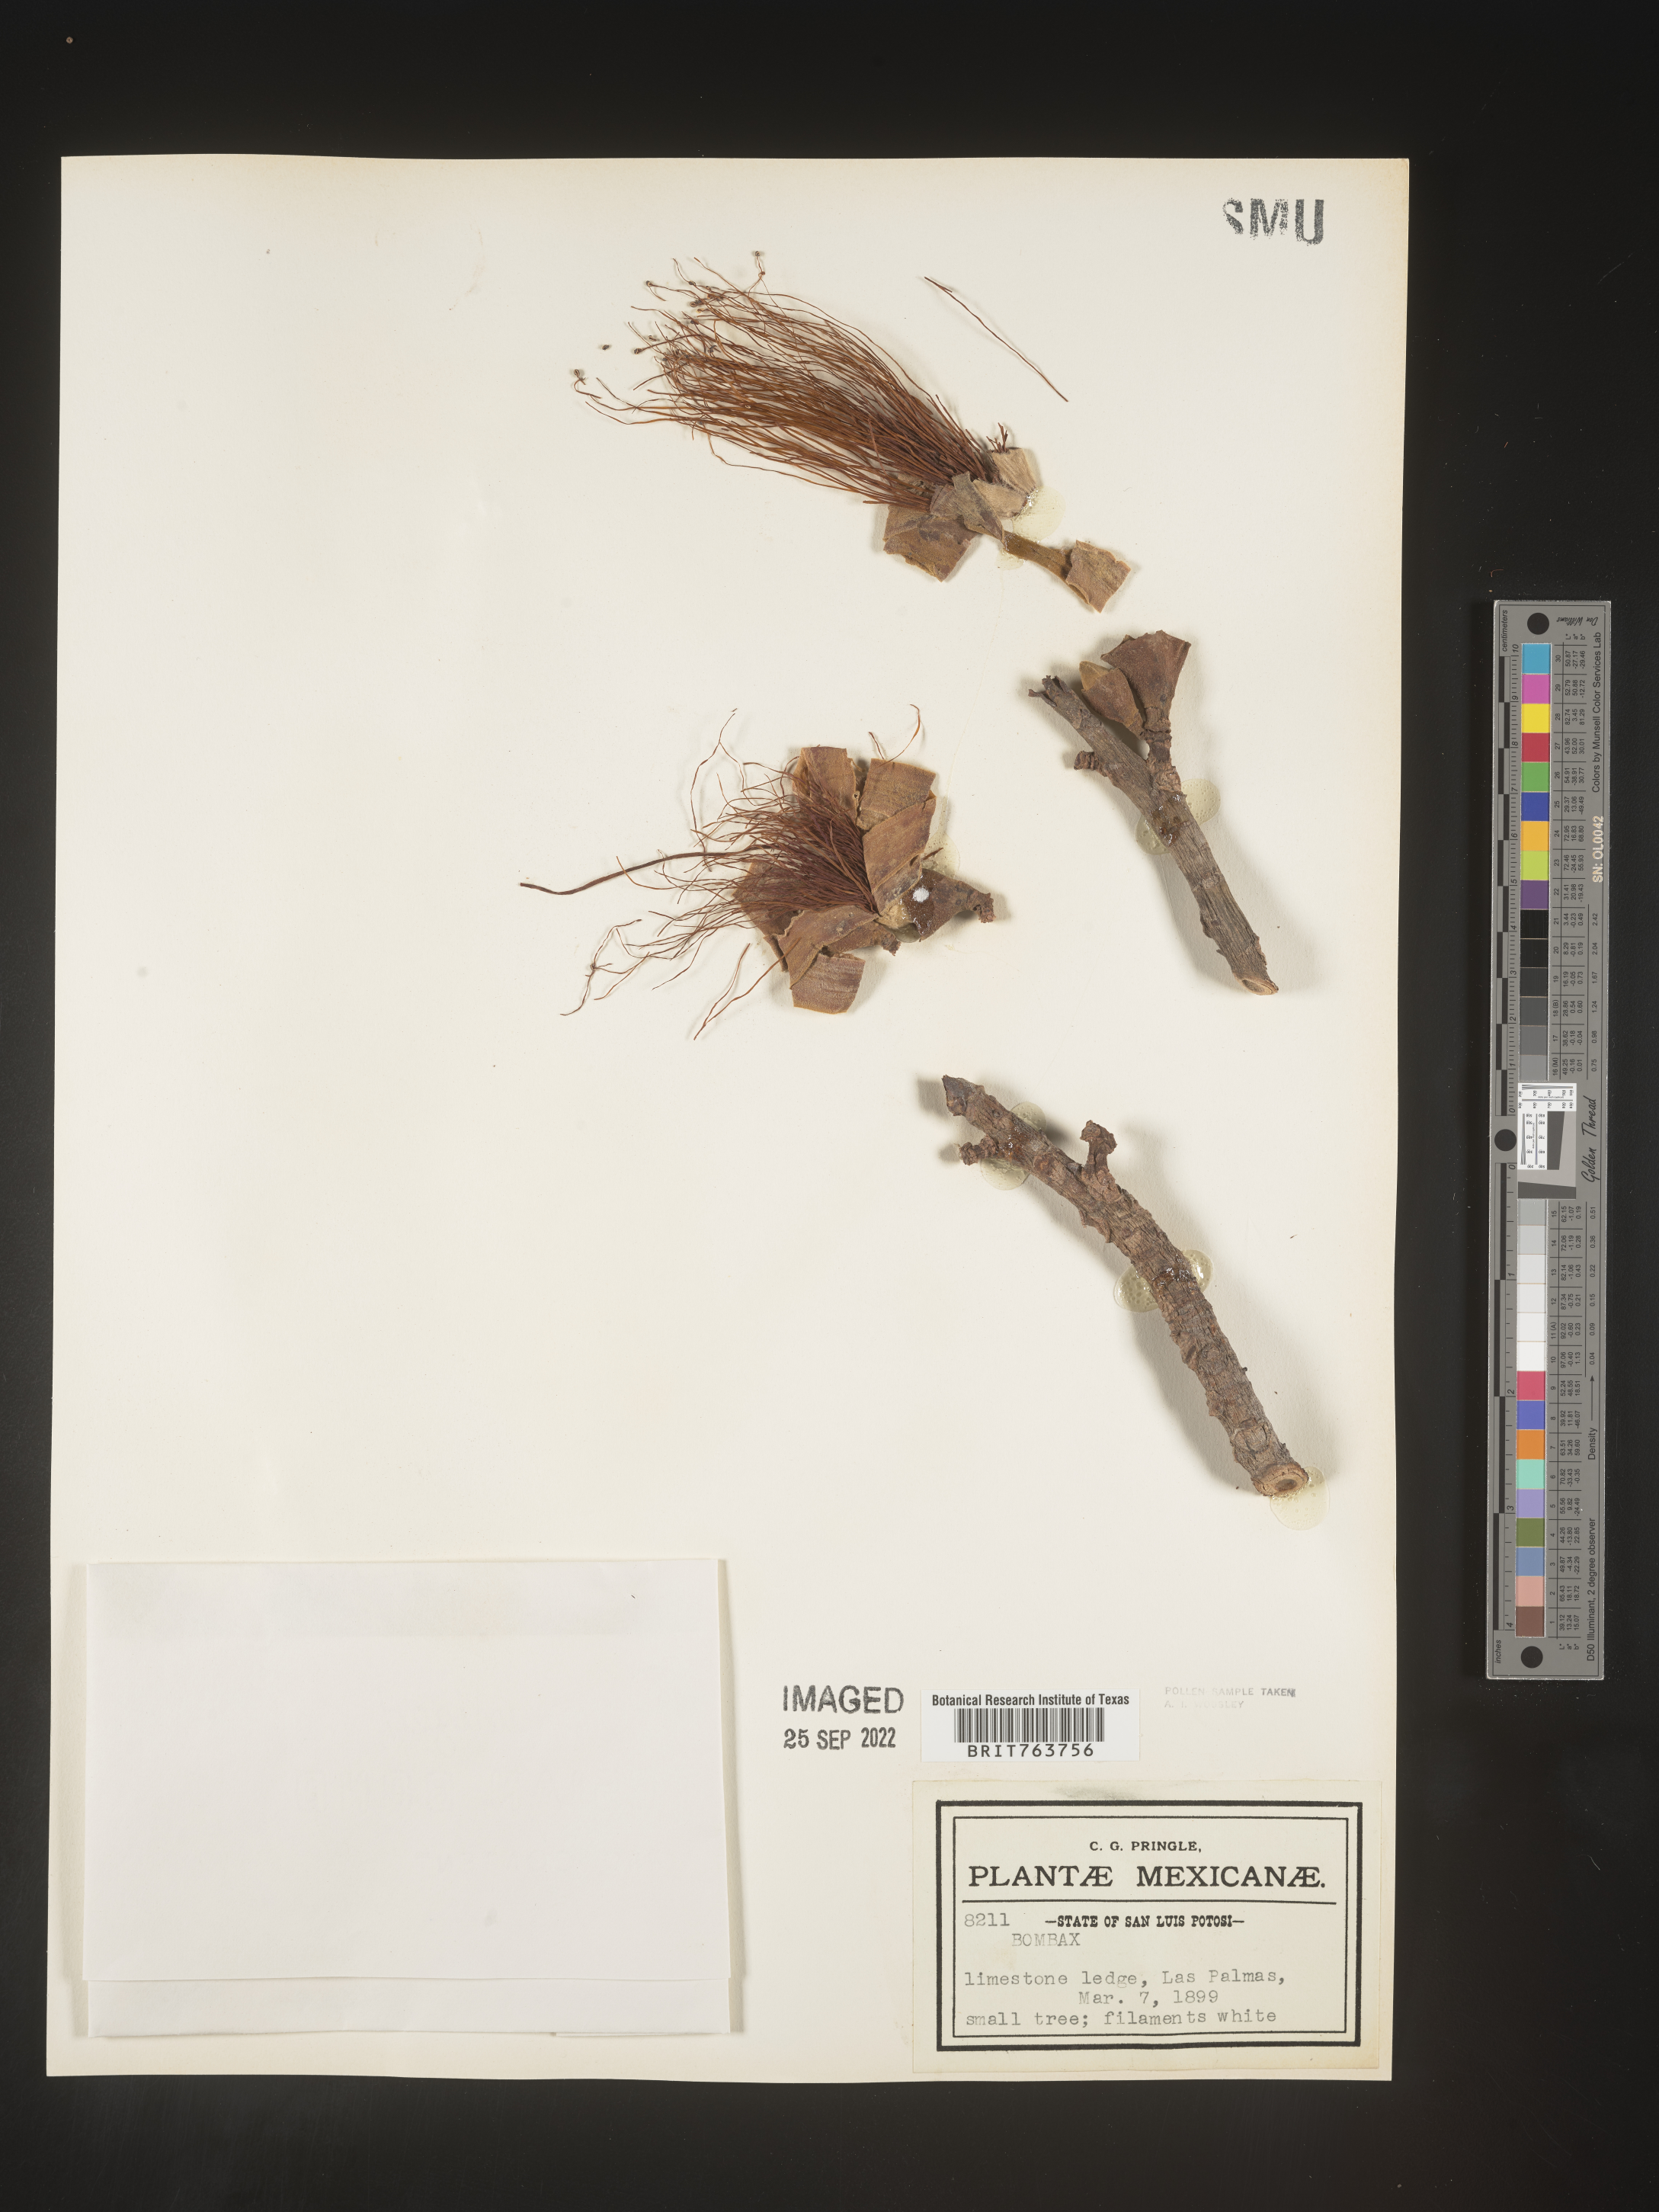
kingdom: Plantae
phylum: Tracheophyta
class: Magnoliopsida
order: Malvales
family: Malvaceae
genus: Bombax
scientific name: Bombax
